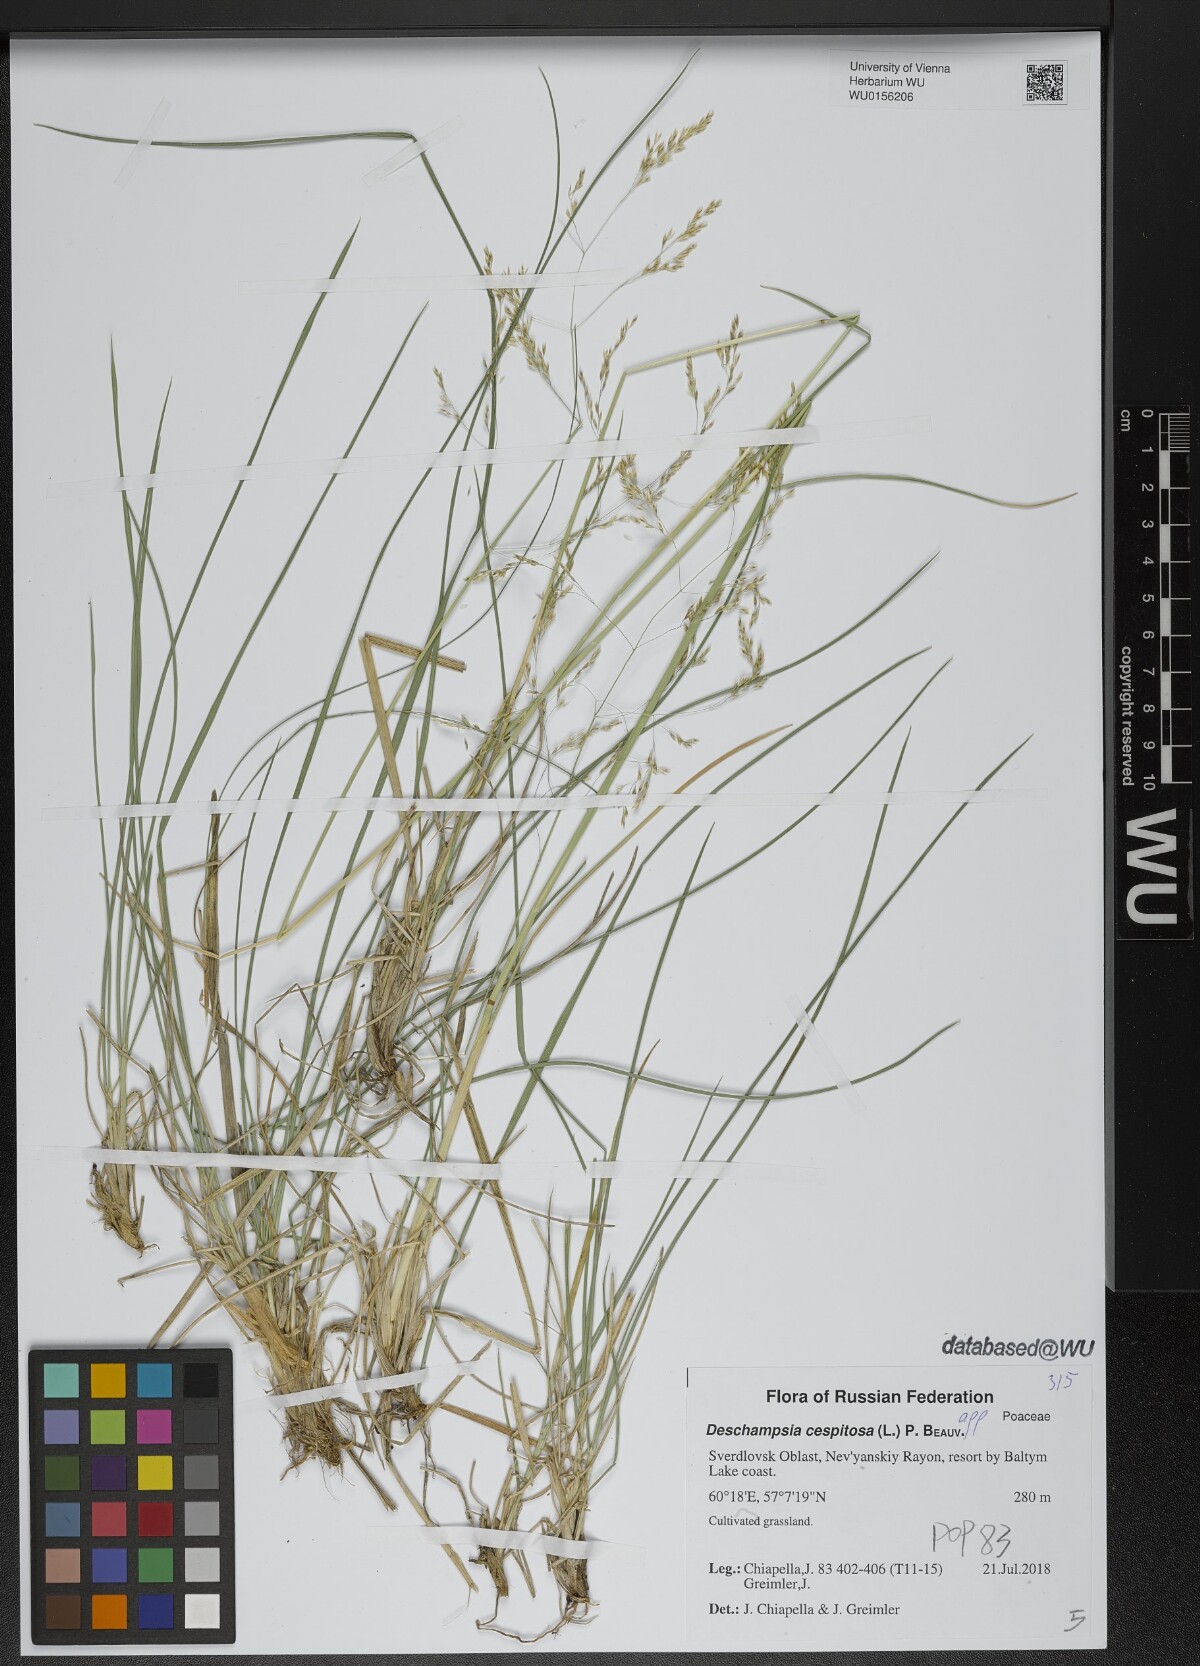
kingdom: Plantae
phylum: Tracheophyta
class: Liliopsida
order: Poales
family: Poaceae
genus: Deschampsia
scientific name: Deschampsia cespitosa
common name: Tufted hair-grass
